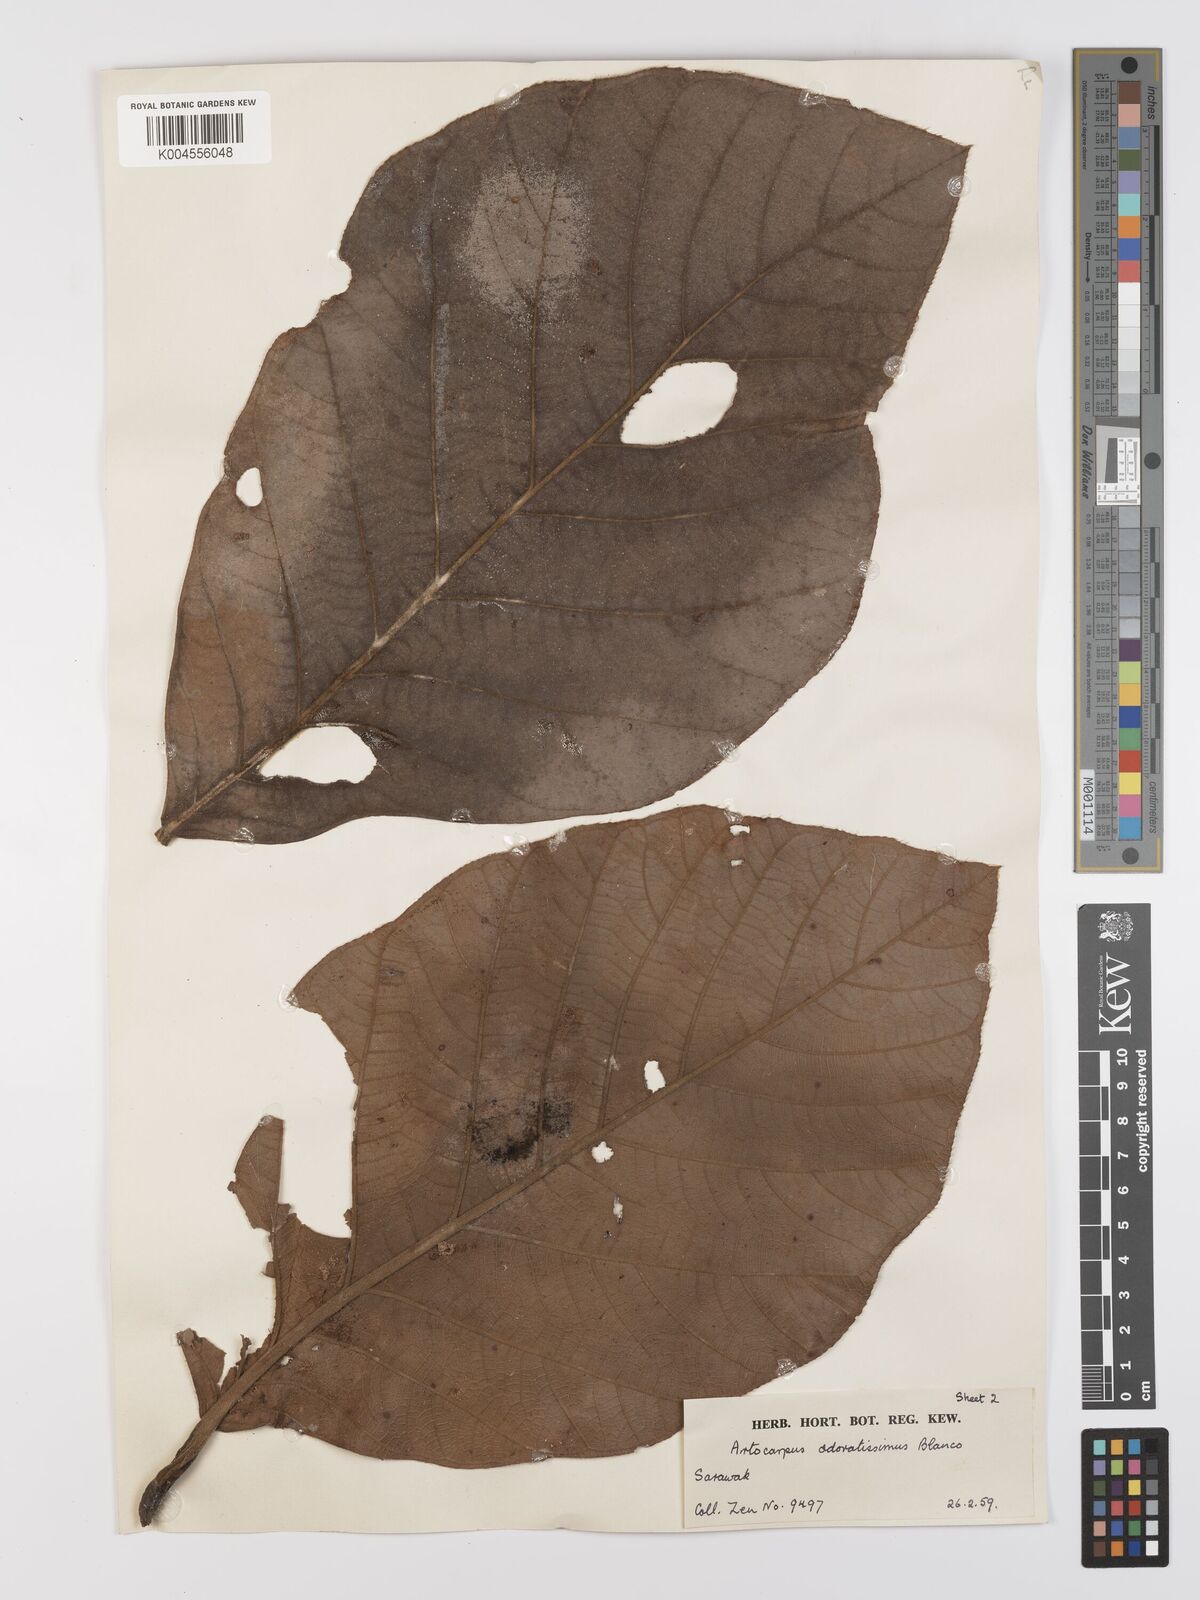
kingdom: Plantae
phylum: Tracheophyta
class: Magnoliopsida
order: Rosales
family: Moraceae
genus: Artocarpus
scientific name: Artocarpus odoratissimus
